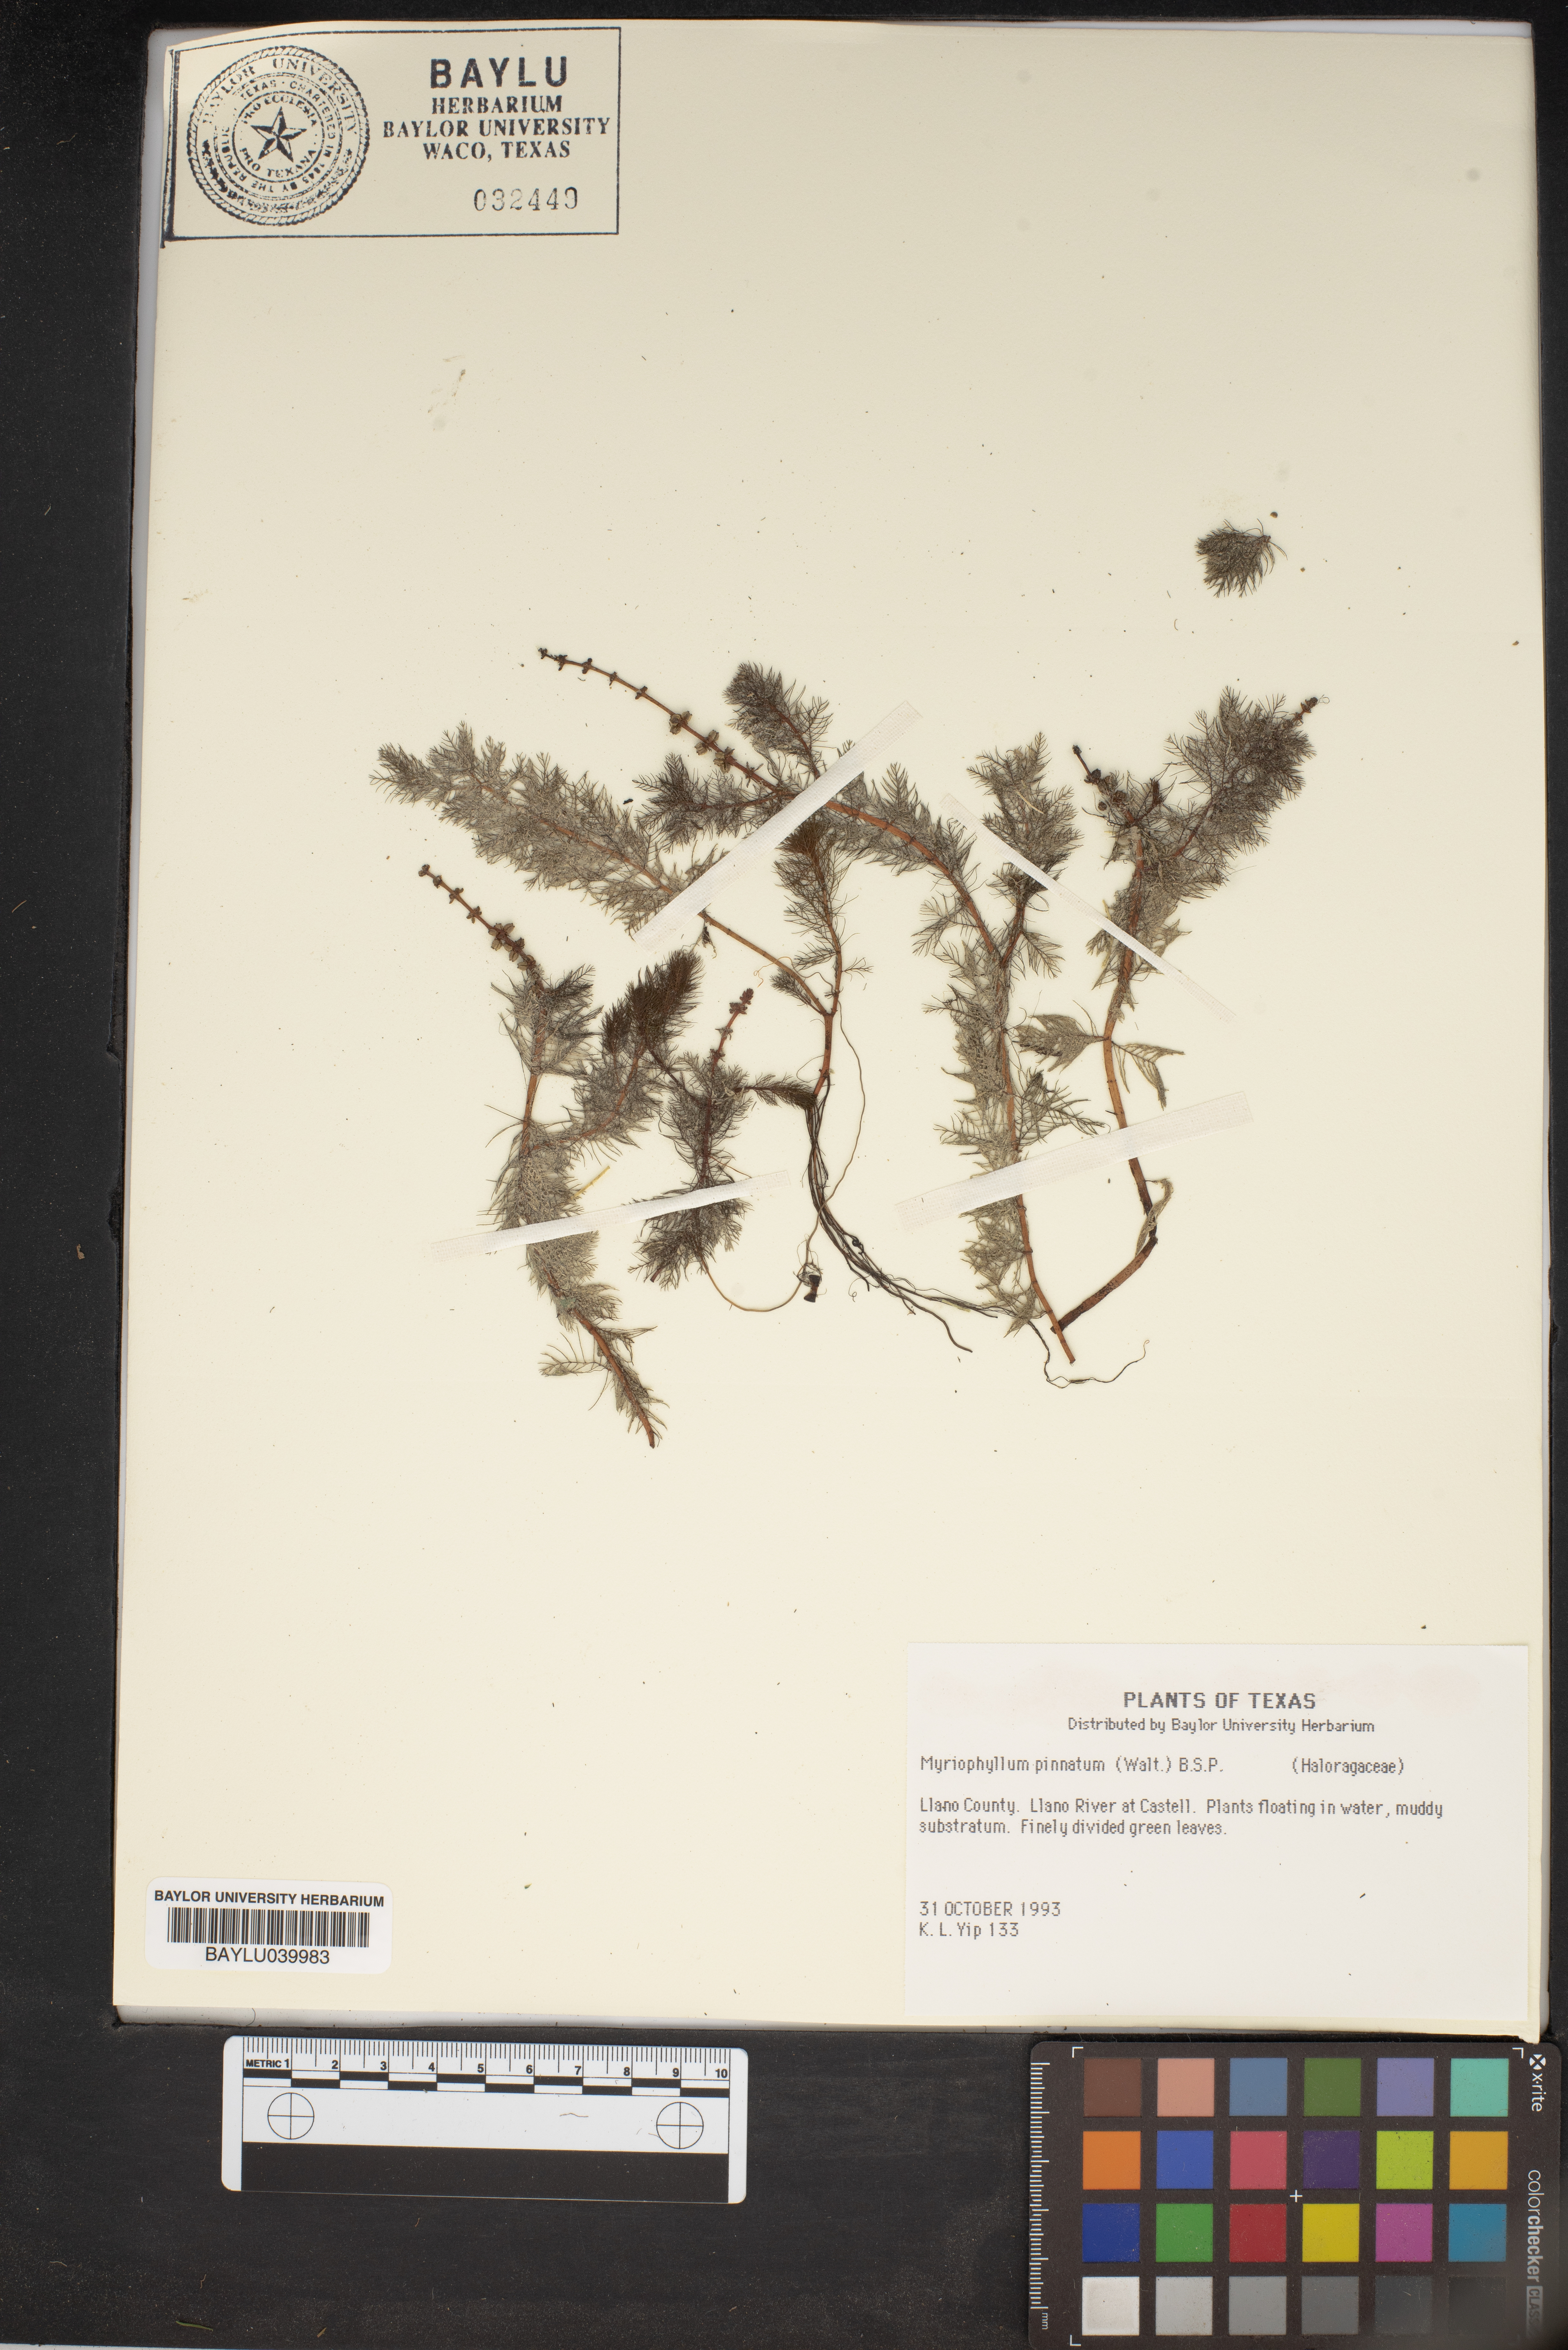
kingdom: Plantae
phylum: Tracheophyta
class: Magnoliopsida
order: Saxifragales
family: Haloragaceae
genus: Myriophyllum
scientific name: Myriophyllum pinnatum
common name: Cut-leaved water-milfoil
